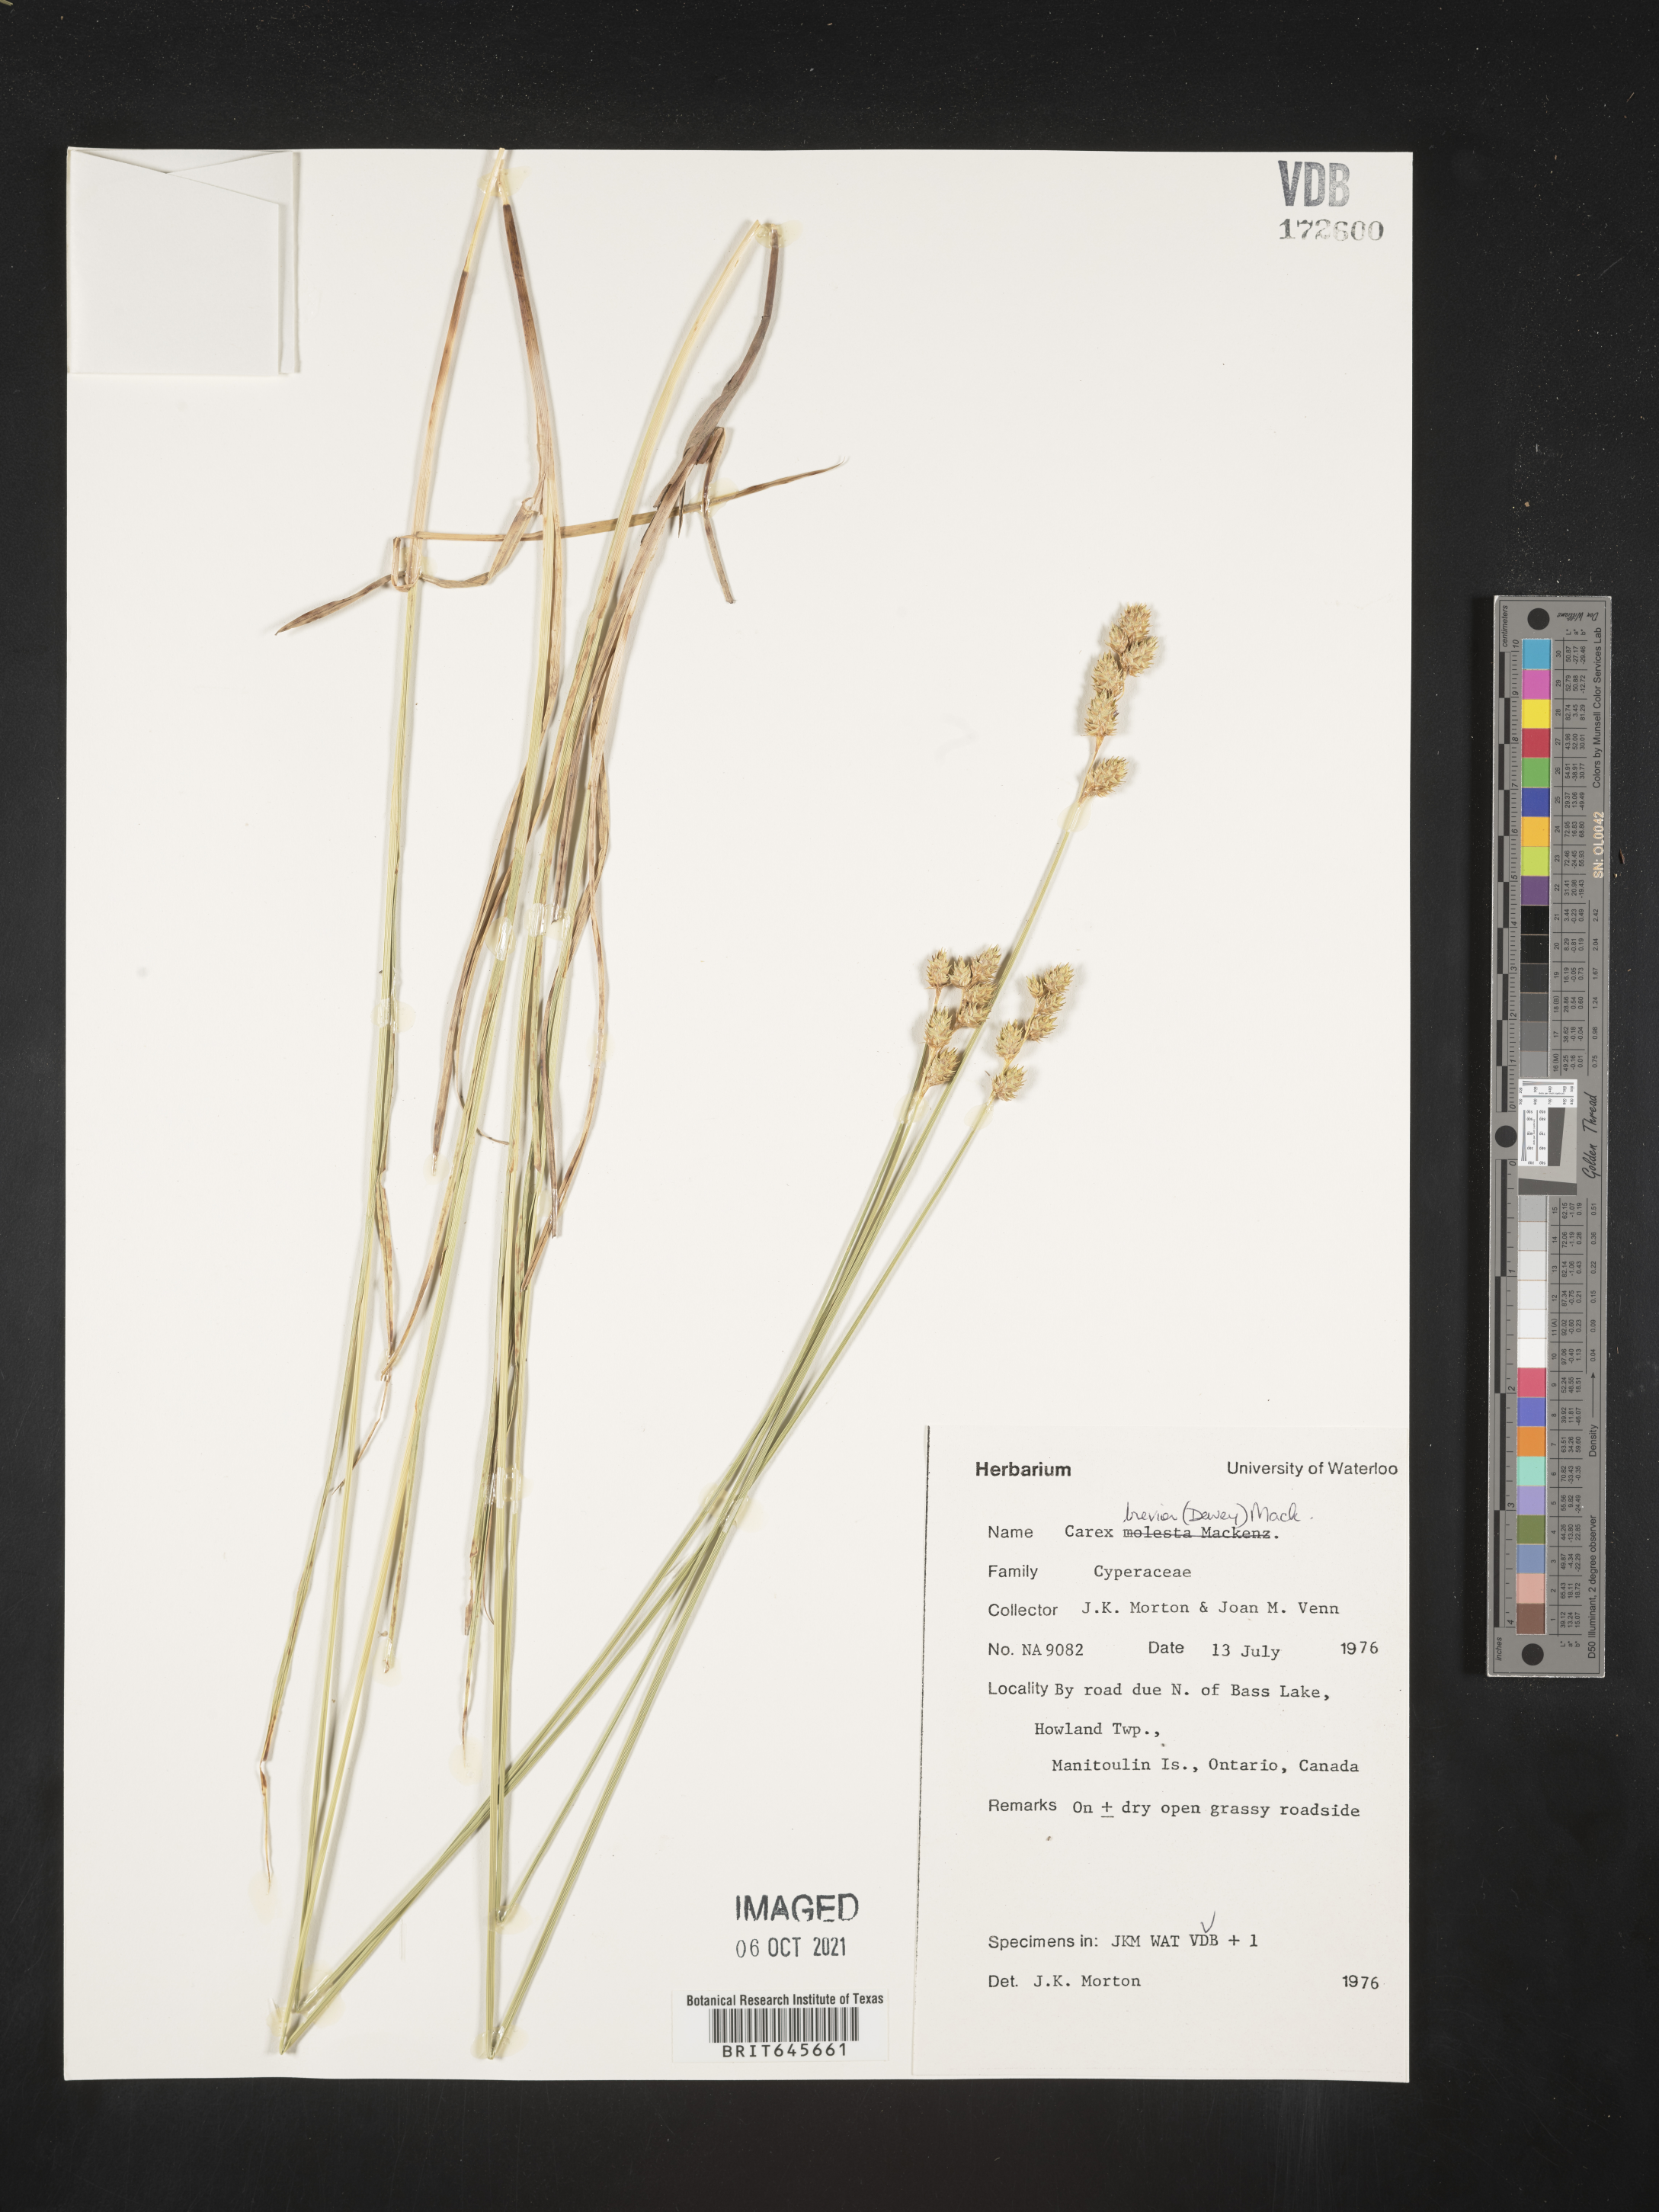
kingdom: Plantae
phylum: Tracheophyta
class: Liliopsida
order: Poales
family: Cyperaceae
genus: Carex
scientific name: Carex brevior
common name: Brevior sedge
